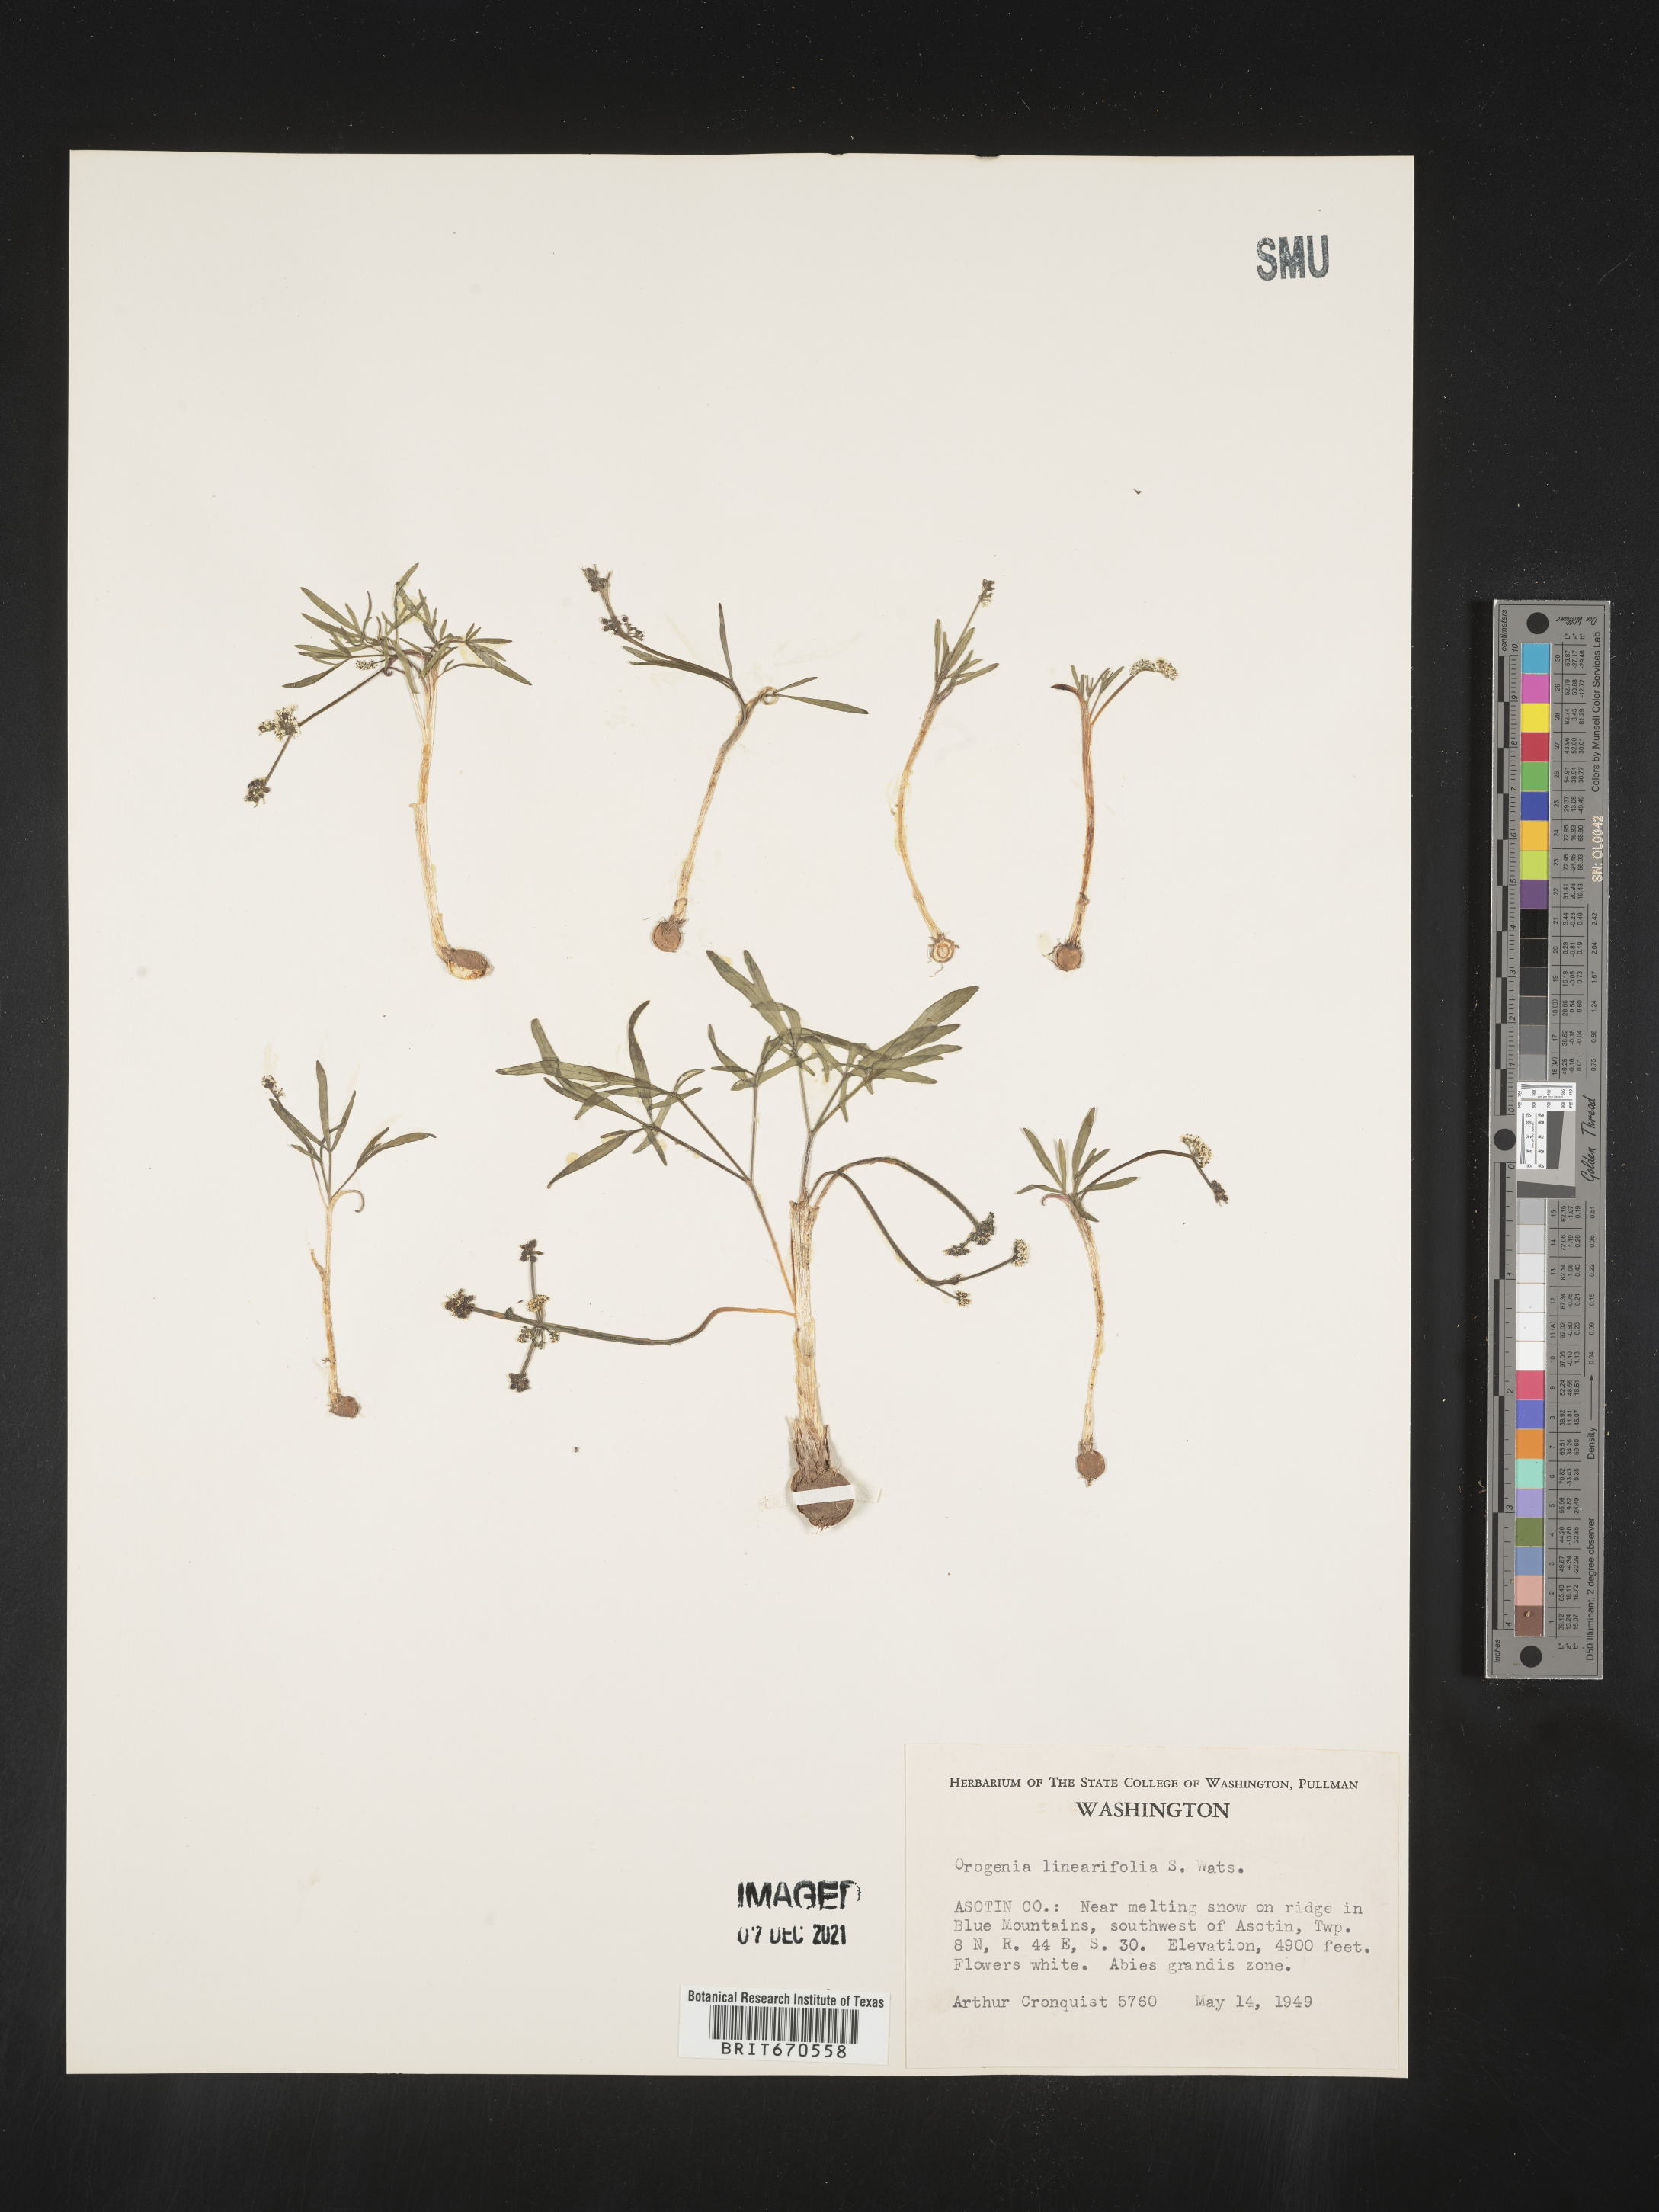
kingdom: Plantae
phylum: Tracheophyta
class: Magnoliopsida
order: Apiales
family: Apiaceae
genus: Lomatium
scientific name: Lomatium linearifolium
